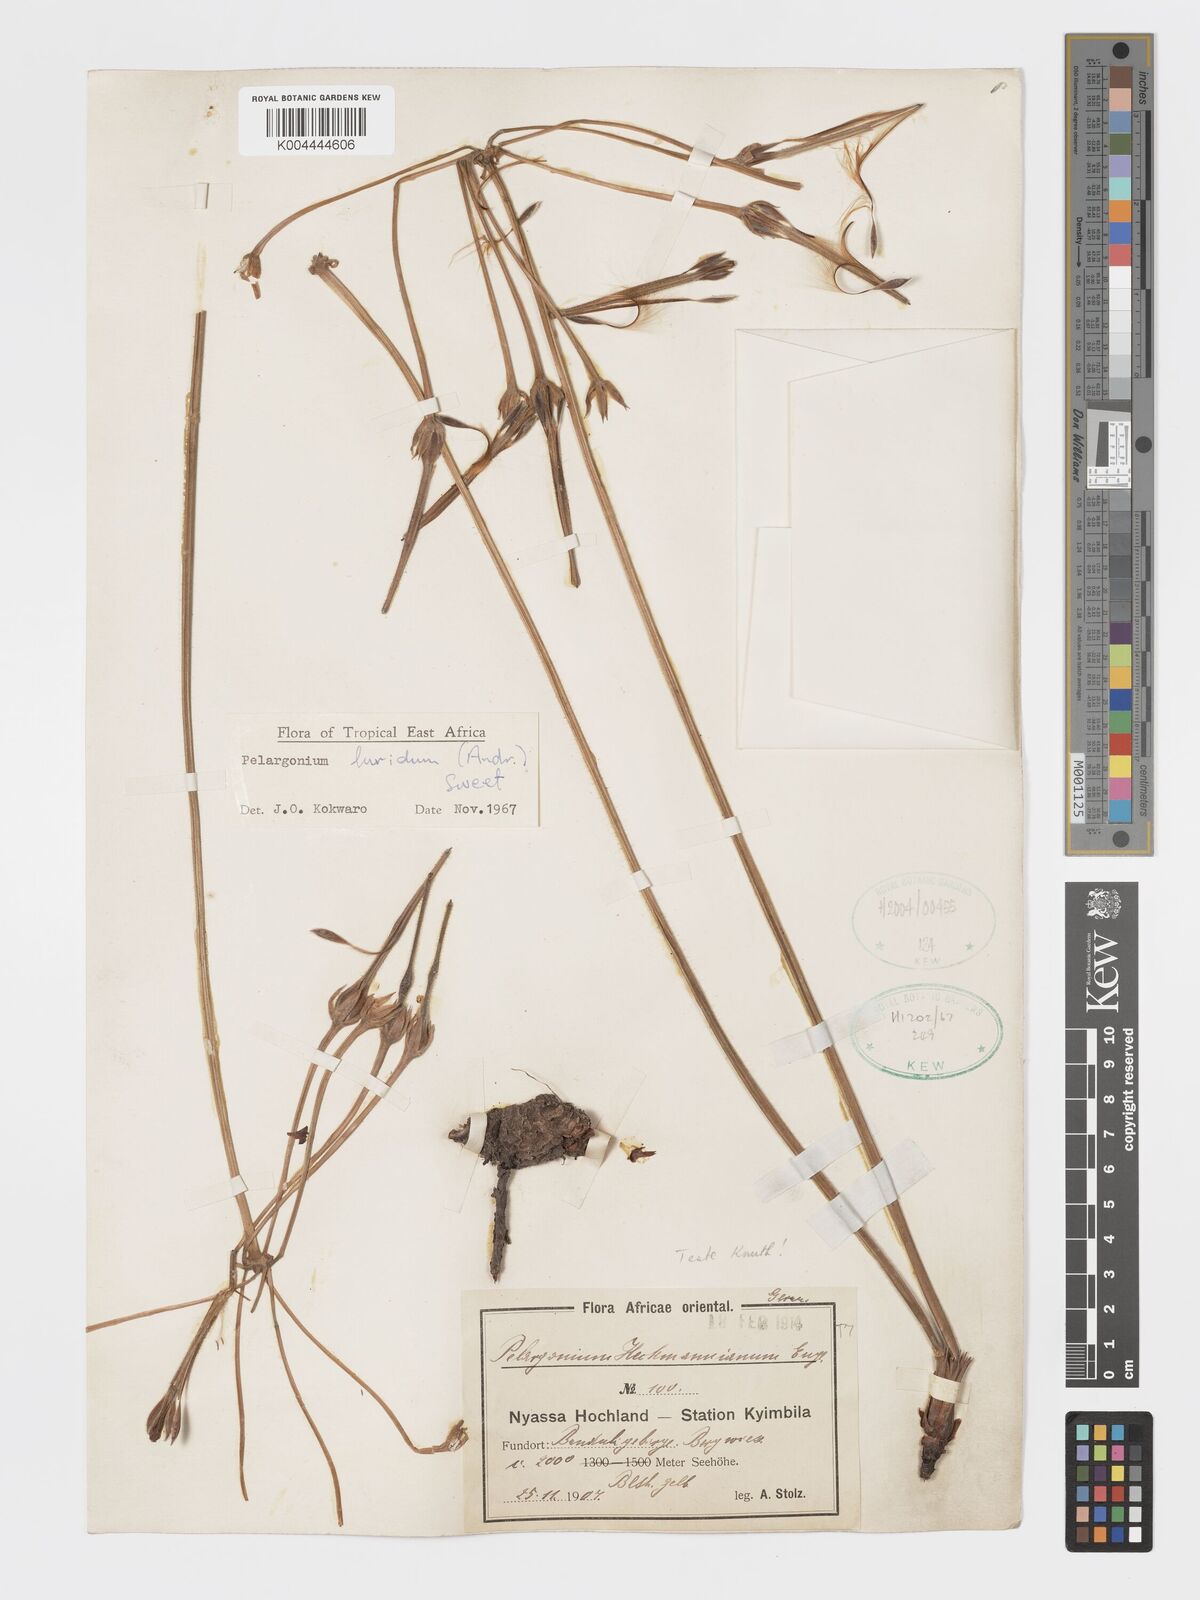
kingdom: Plantae
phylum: Tracheophyta
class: Magnoliopsida
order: Geraniales
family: Geraniaceae
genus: Pelargonium
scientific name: Pelargonium luridum
